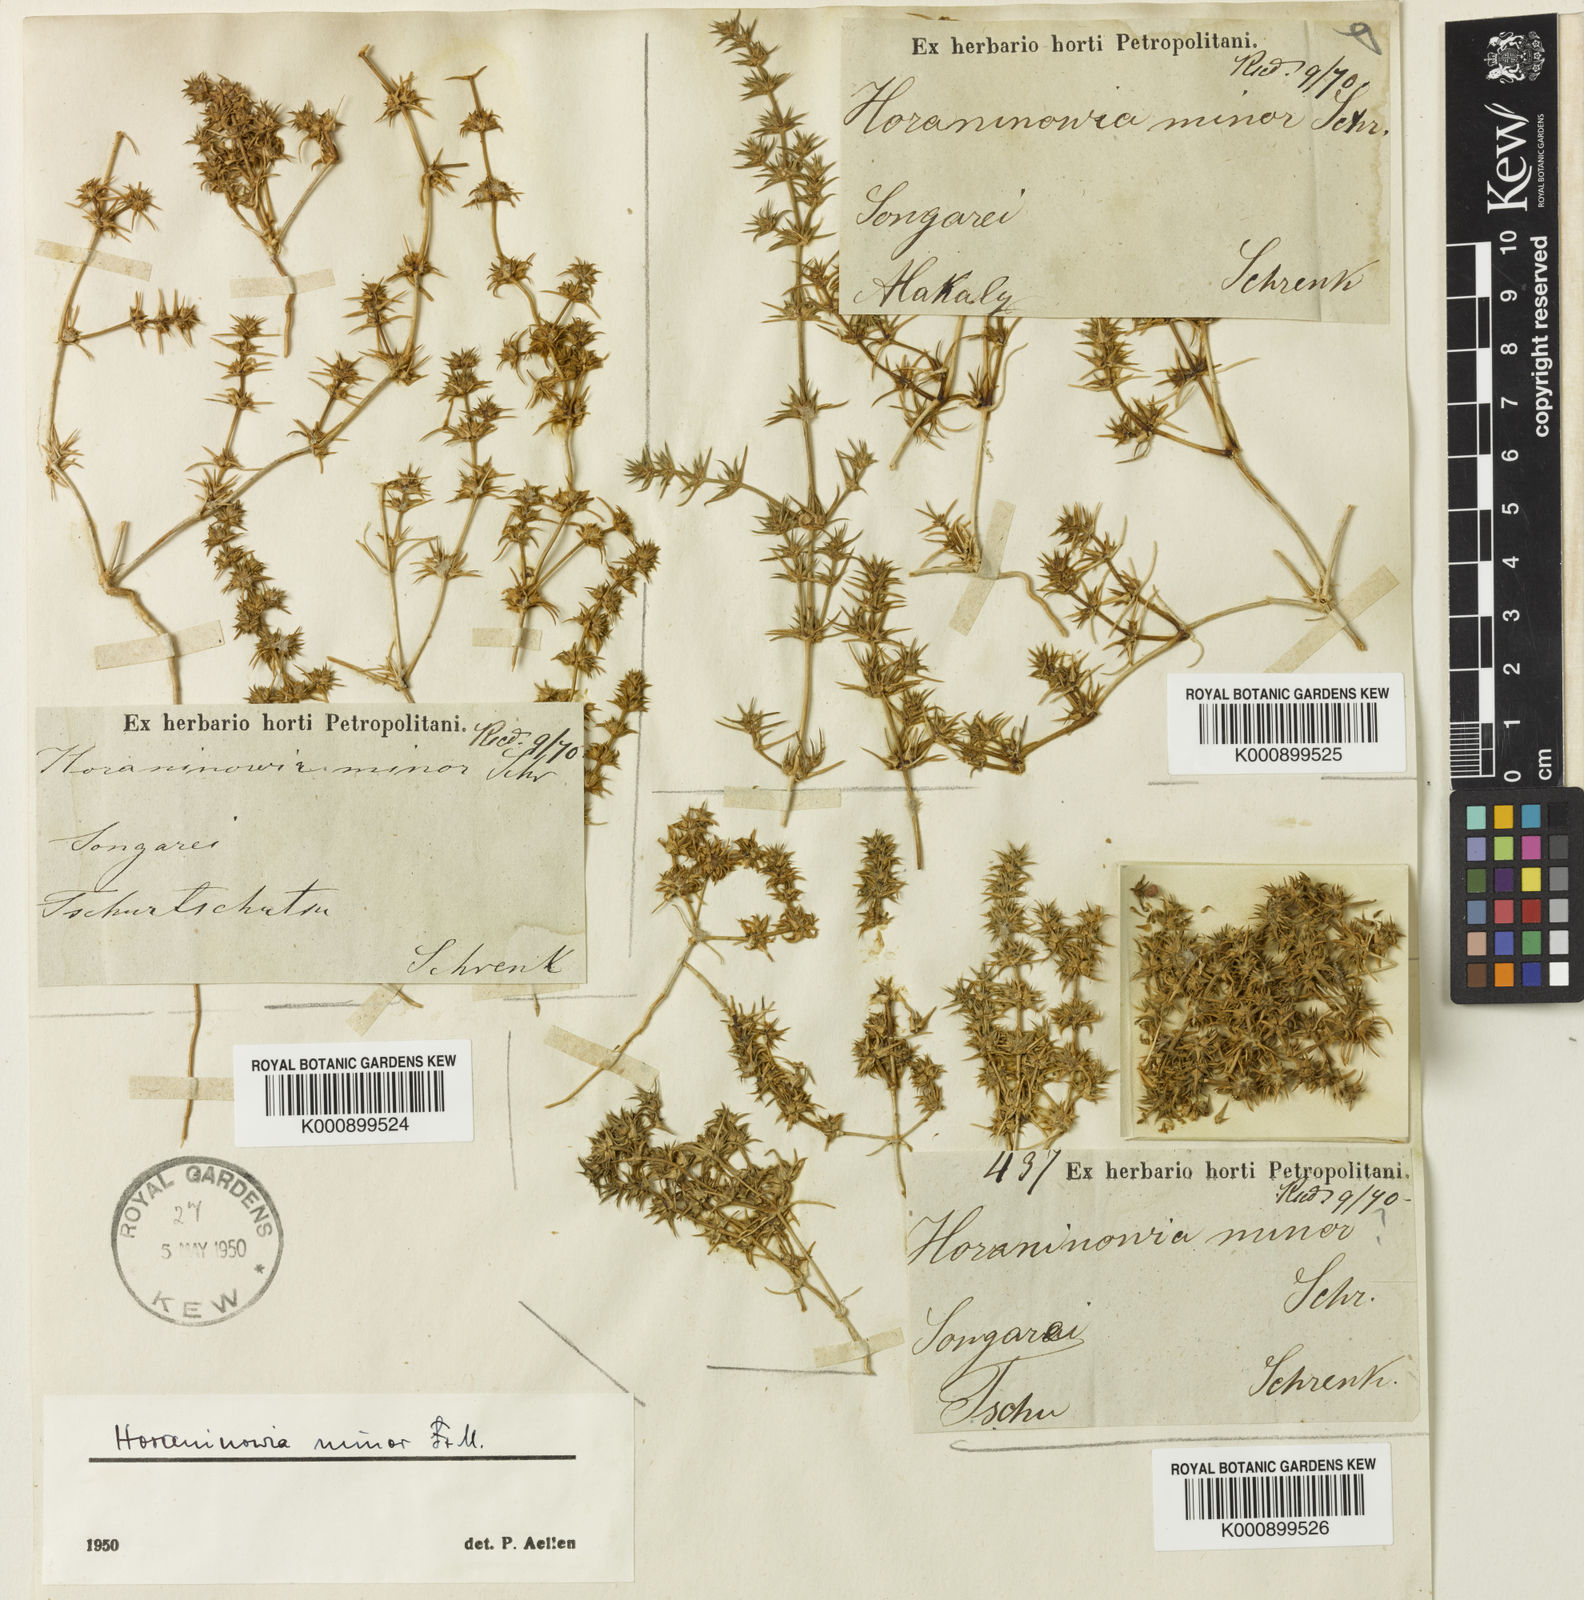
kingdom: Plantae
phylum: Tracheophyta
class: Magnoliopsida
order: Caryophyllales
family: Amaranthaceae
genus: Horaninovia
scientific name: Horaninovia
